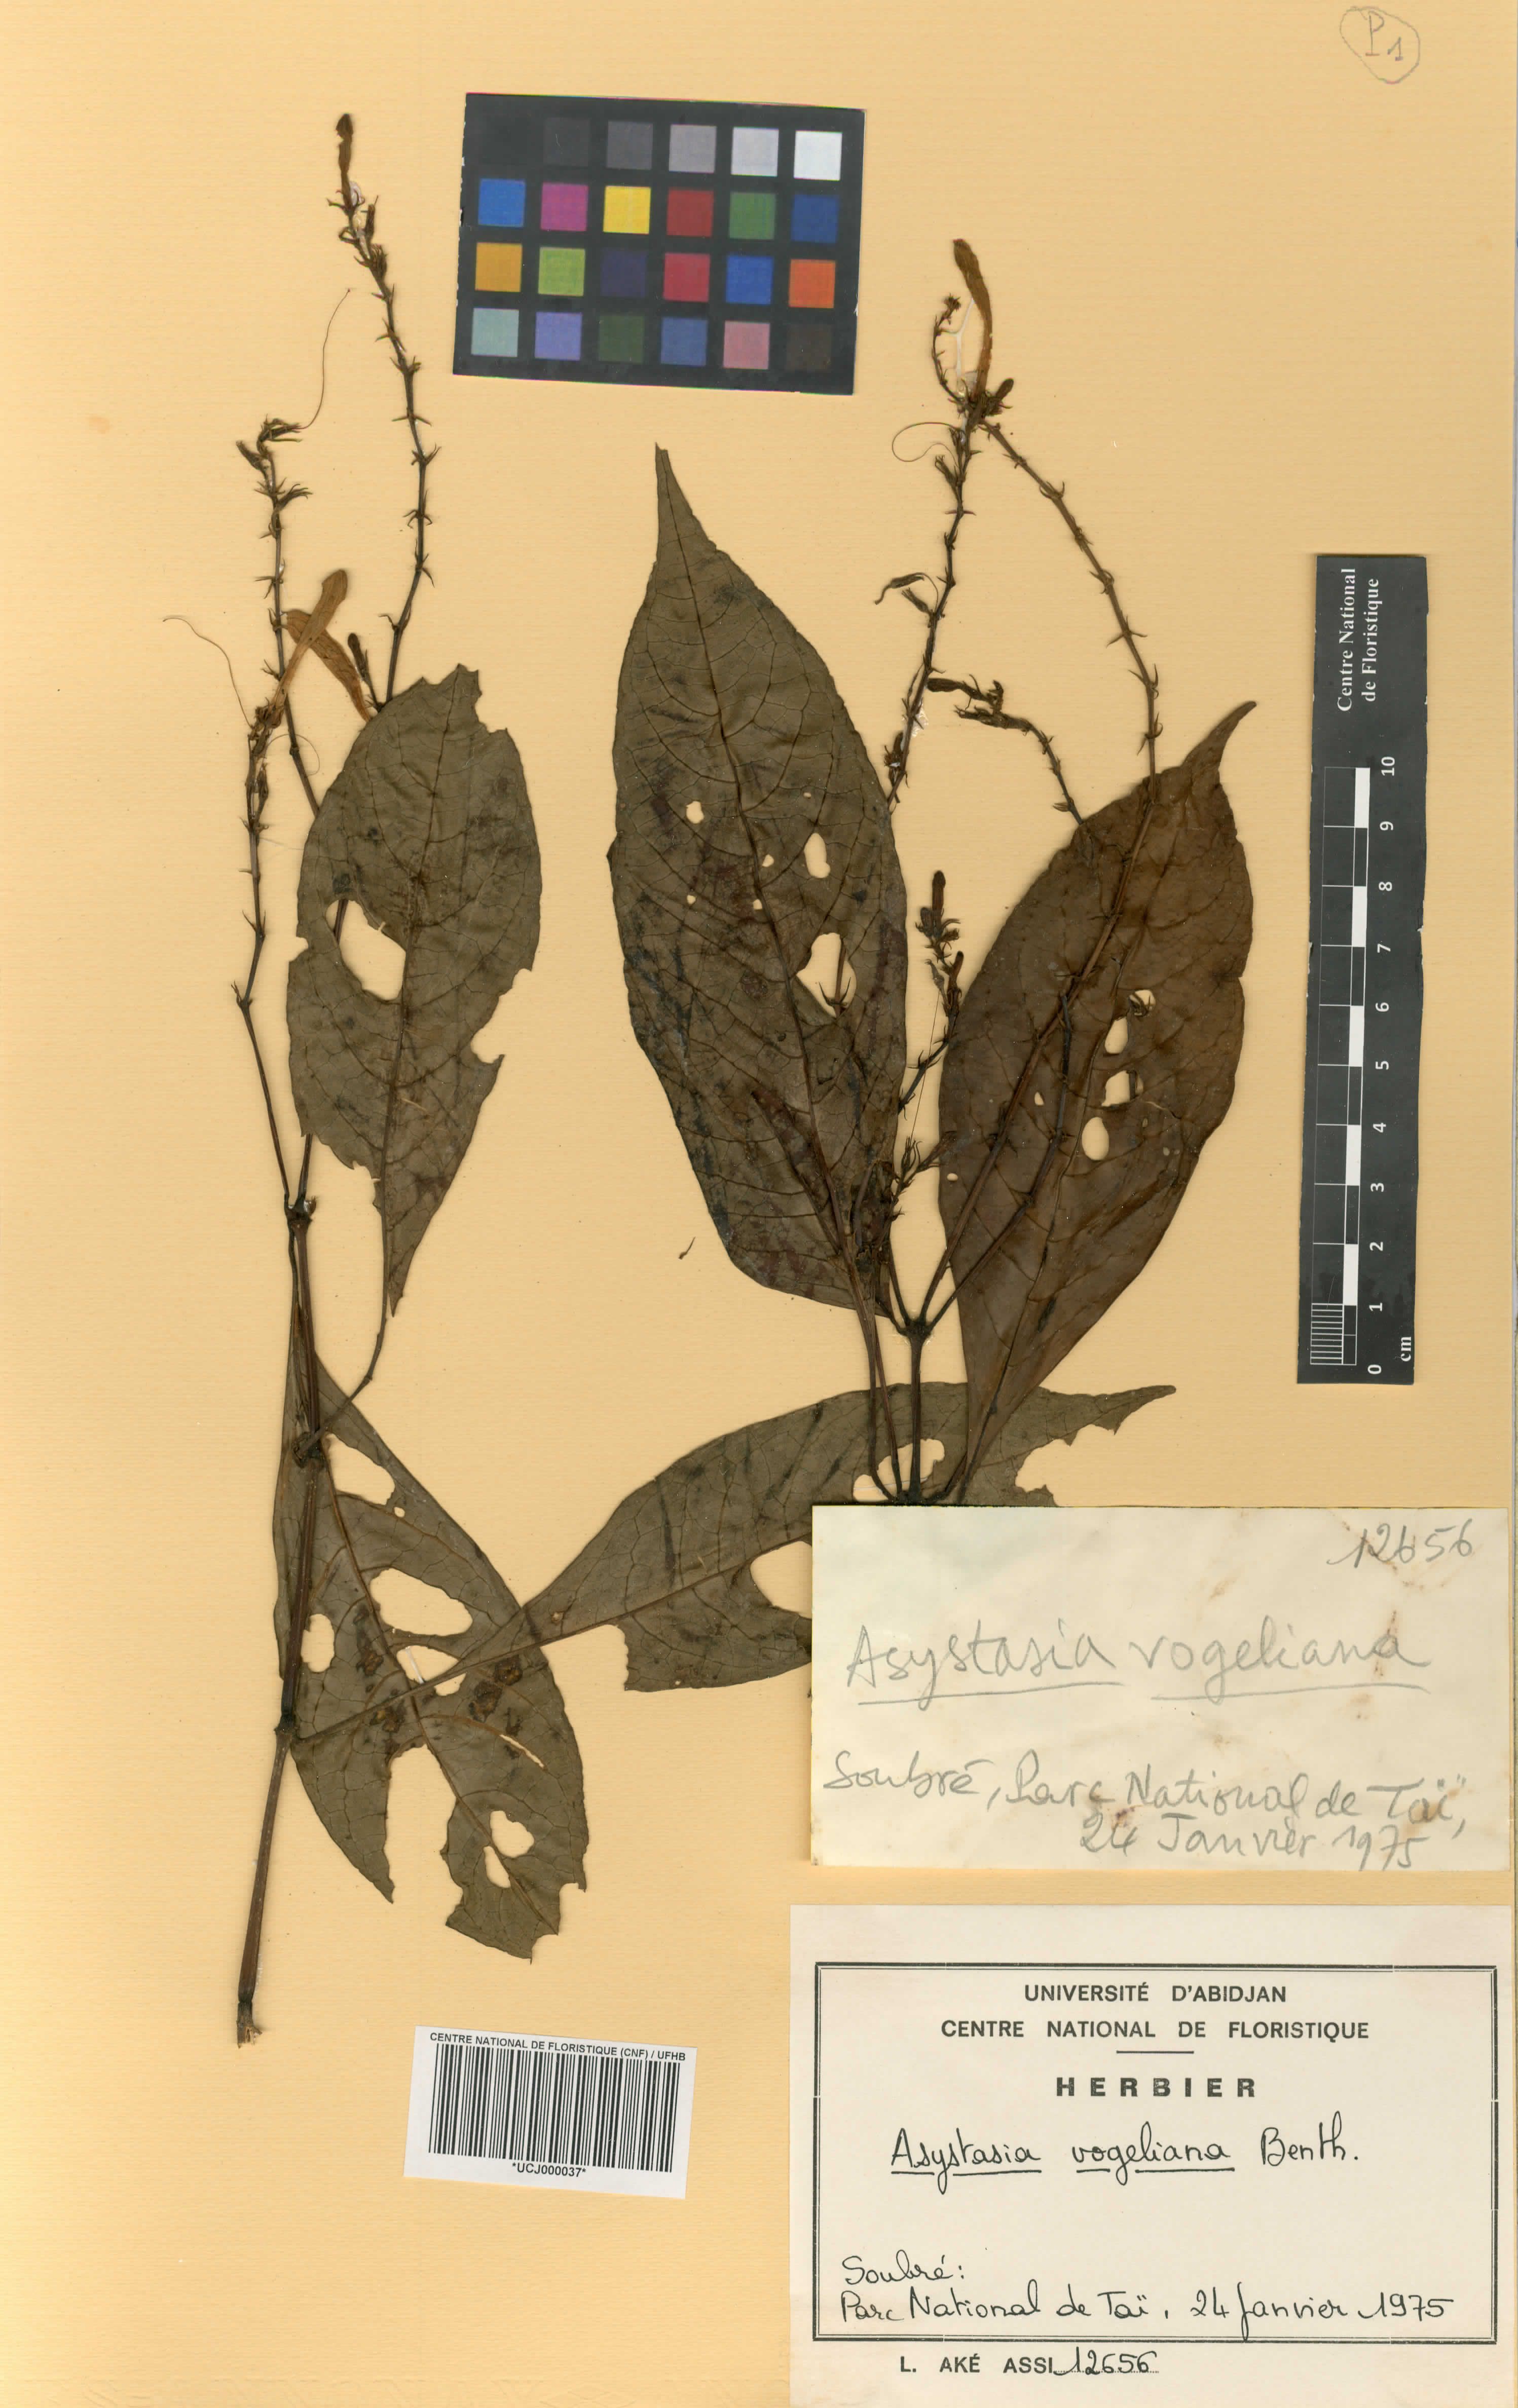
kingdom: Plantae
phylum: Tracheophyta
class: Magnoliopsida
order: Lamiales
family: Acanthaceae
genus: Asystasia
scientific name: Asystasia vogeliana
